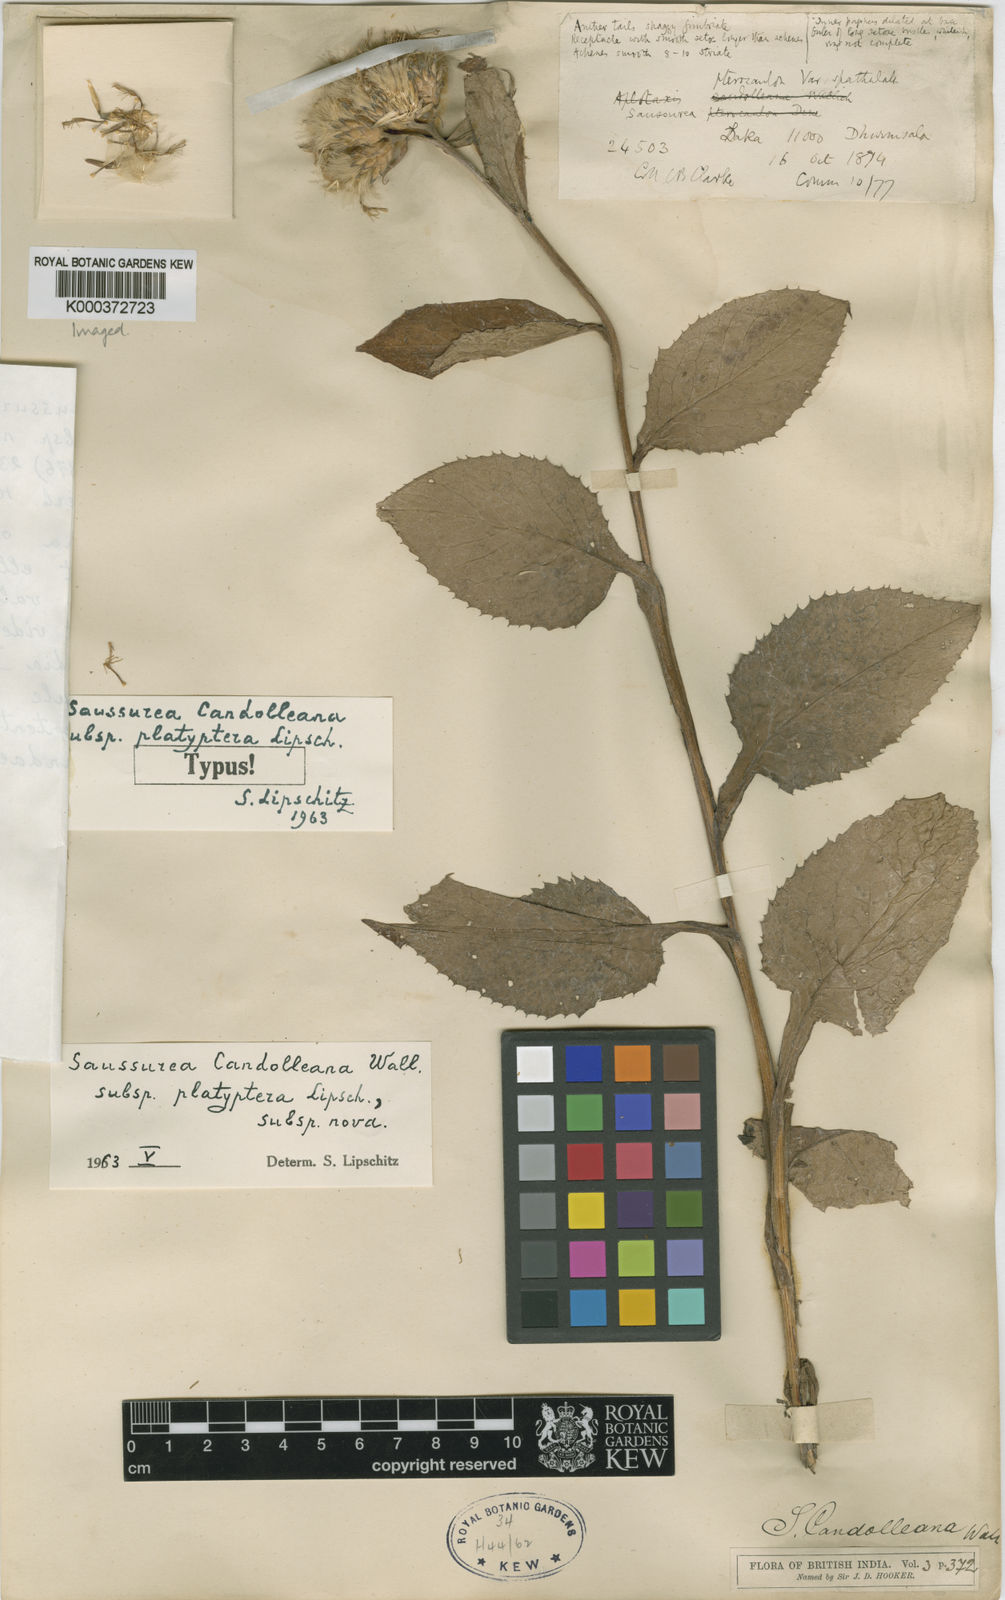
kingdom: Plantae
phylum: Tracheophyta
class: Magnoliopsida
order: Asterales
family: Asteraceae
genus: Saussurea
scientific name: Saussurea candolleana
